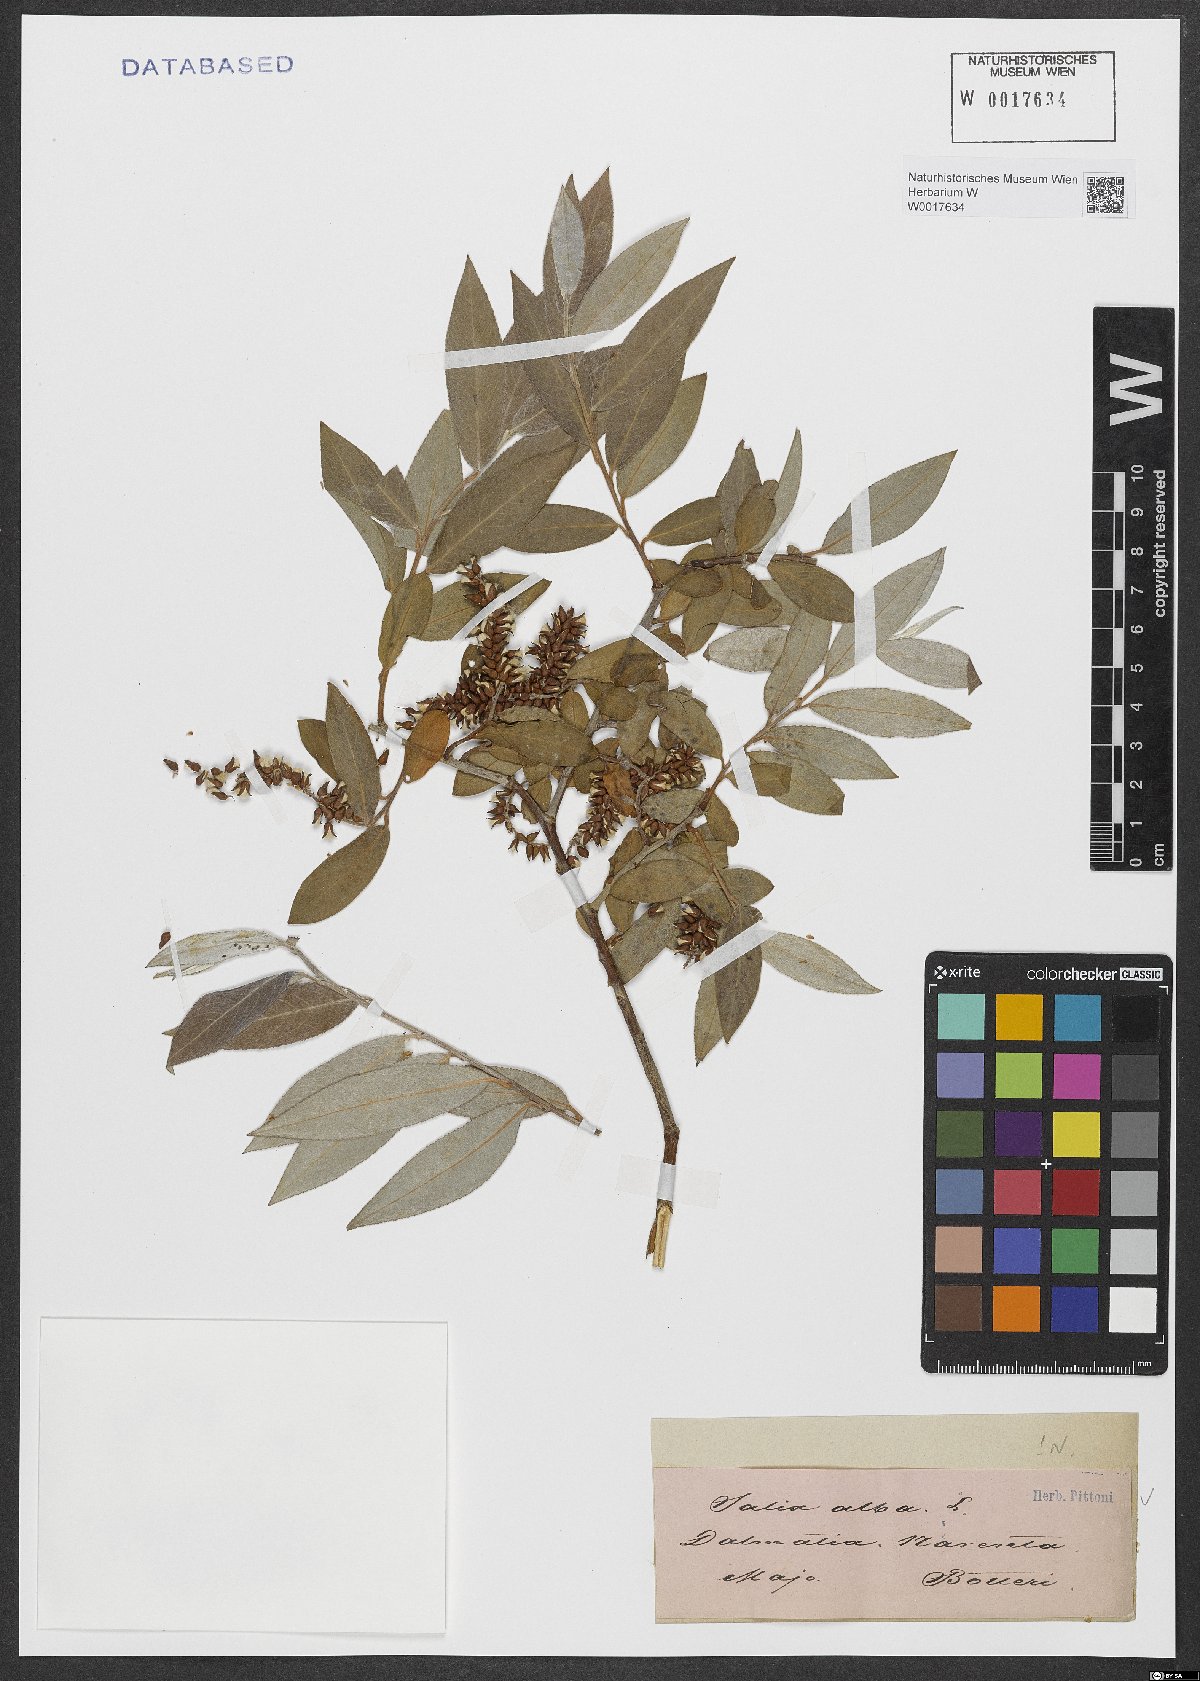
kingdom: Plantae
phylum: Tracheophyta
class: Magnoliopsida
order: Malpighiales
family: Salicaceae
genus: Salix
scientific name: Salix alba
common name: White willow
